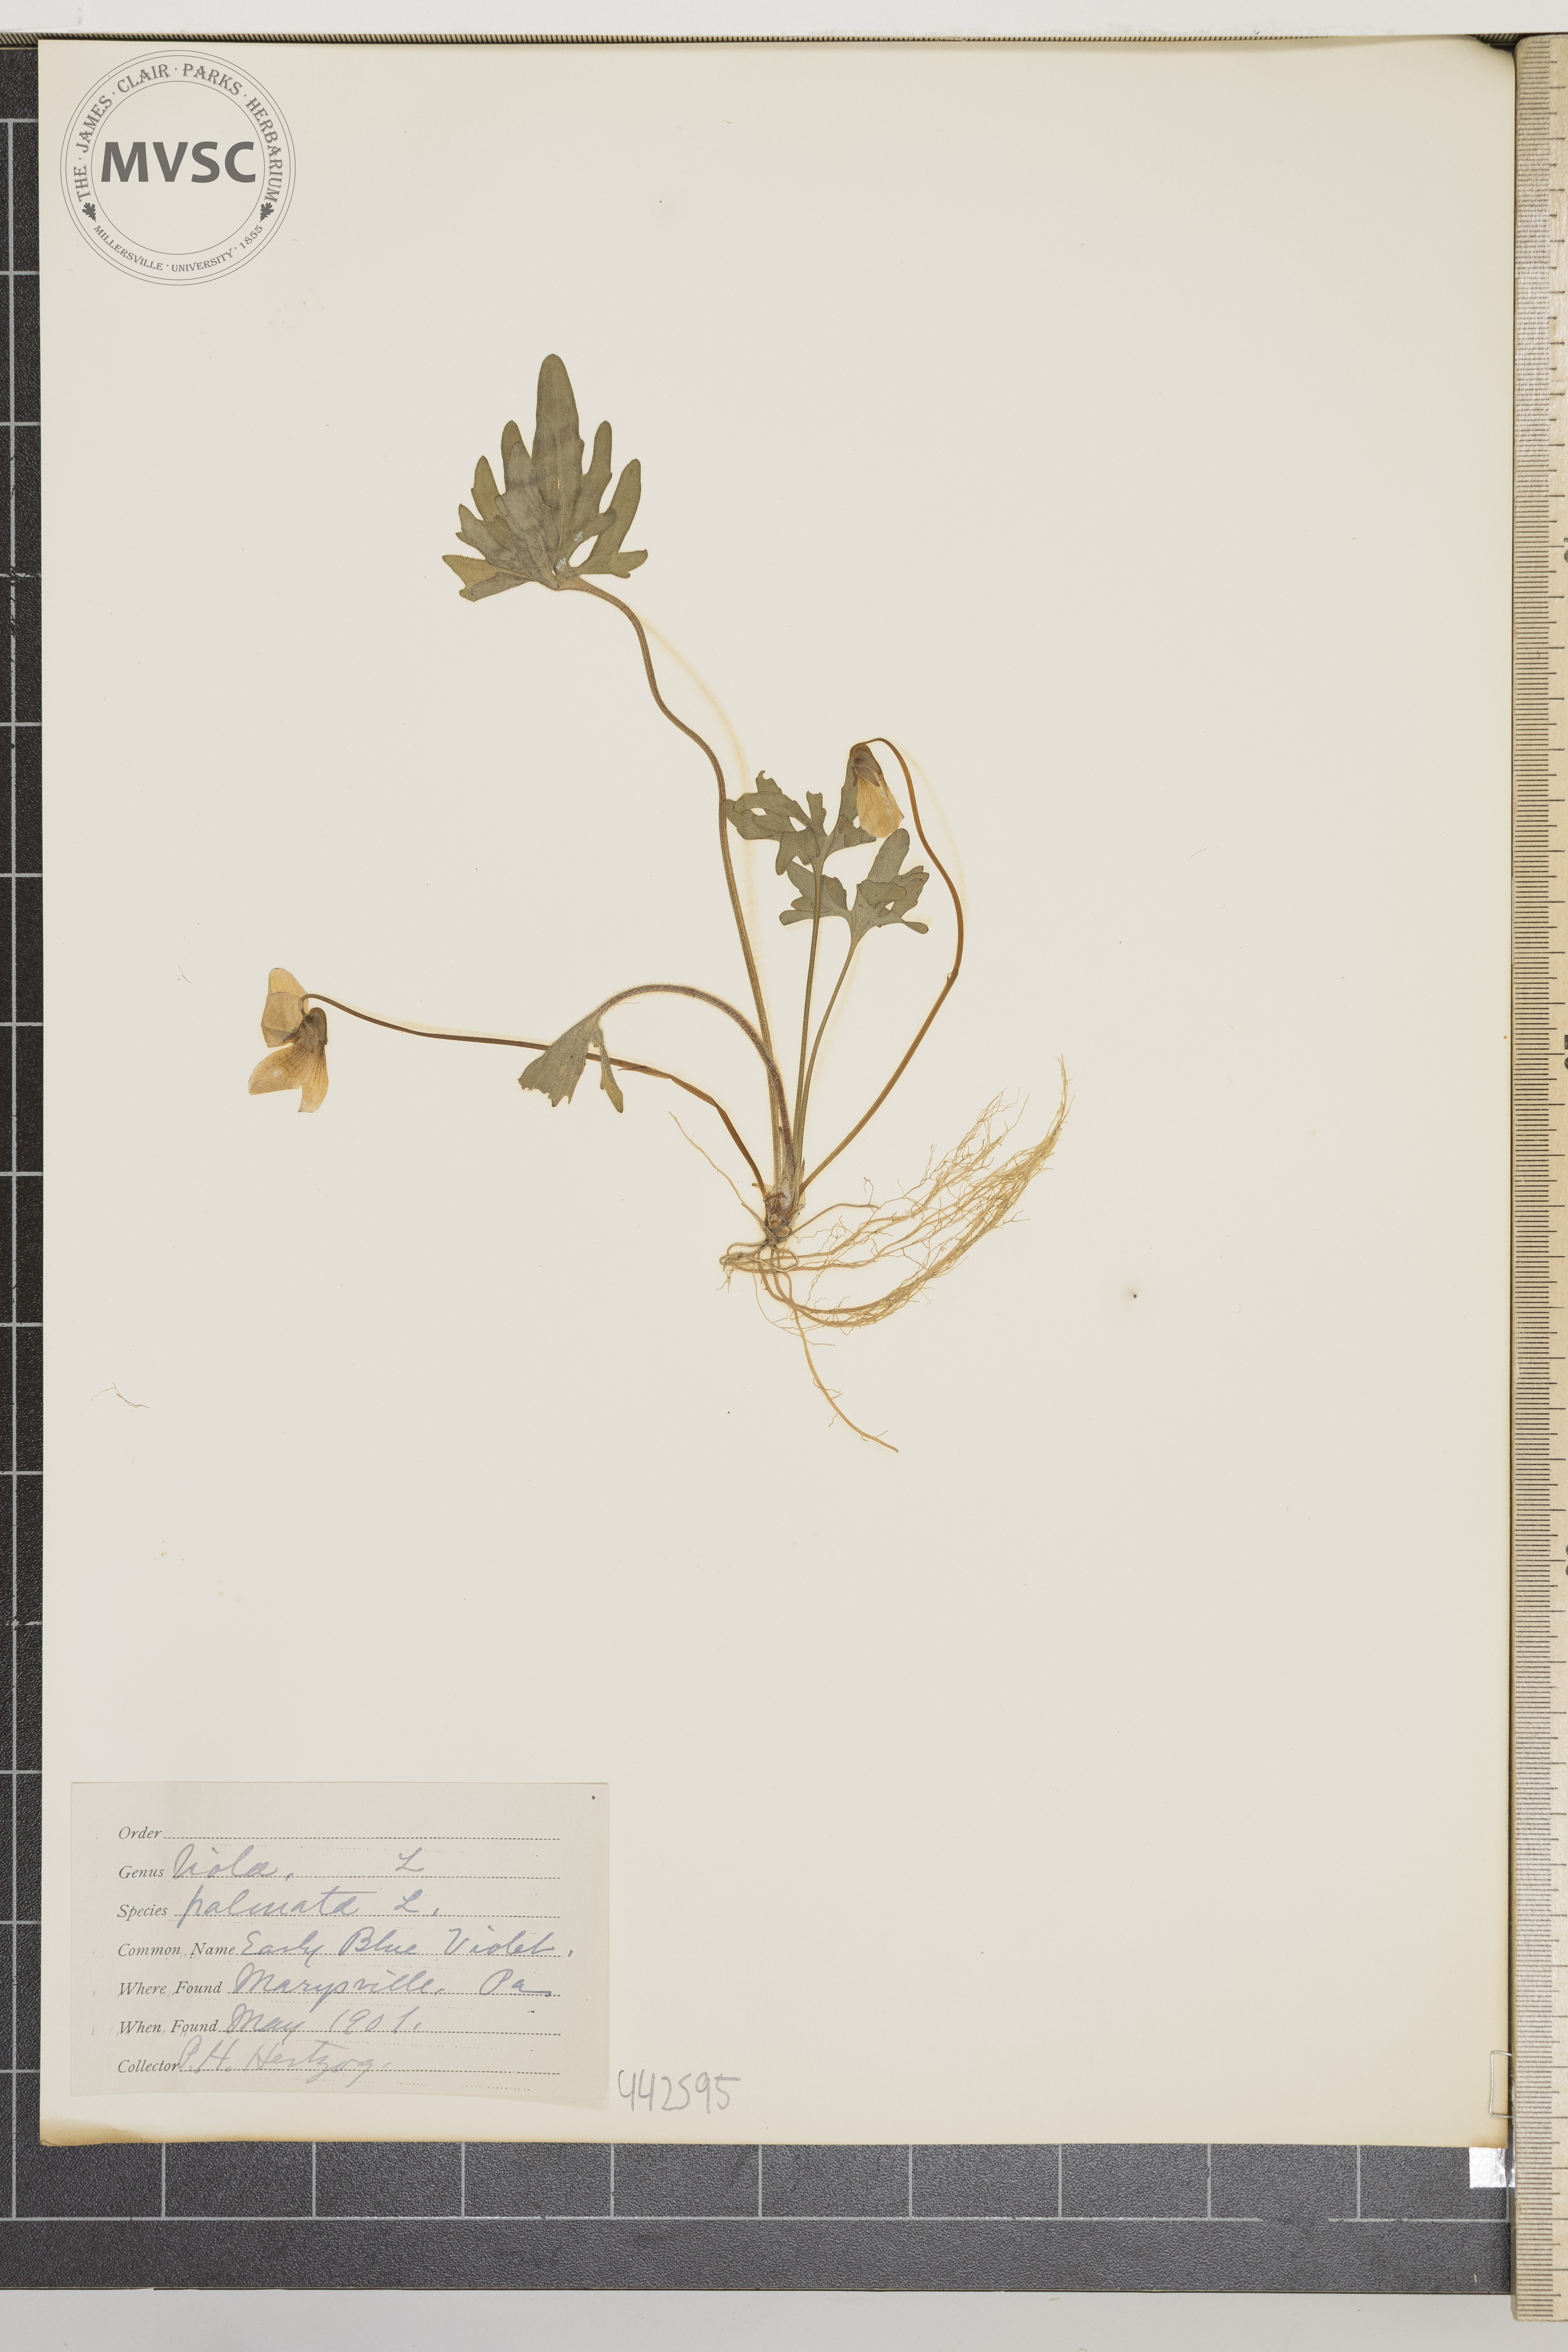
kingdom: Plantae
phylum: Tracheophyta
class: Magnoliopsida
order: Malpighiales
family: Violaceae
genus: Viola
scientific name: Viola palmata
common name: Early blue violet
